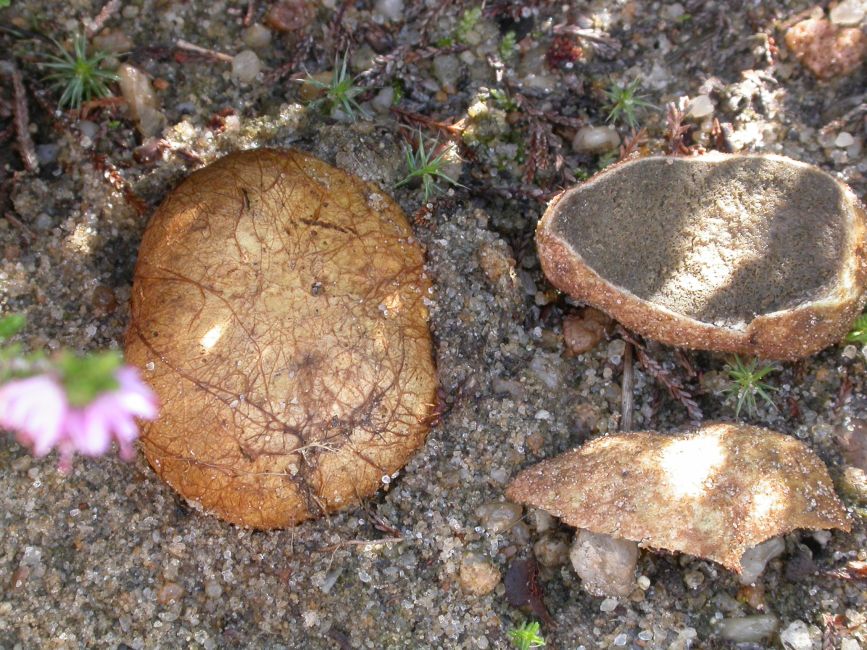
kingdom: Fungi
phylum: Basidiomycota
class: Agaricomycetes
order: Boletales
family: Rhizopogonaceae
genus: Rhizopogon
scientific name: Rhizopogon obtextus
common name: gul skægtrøffel
